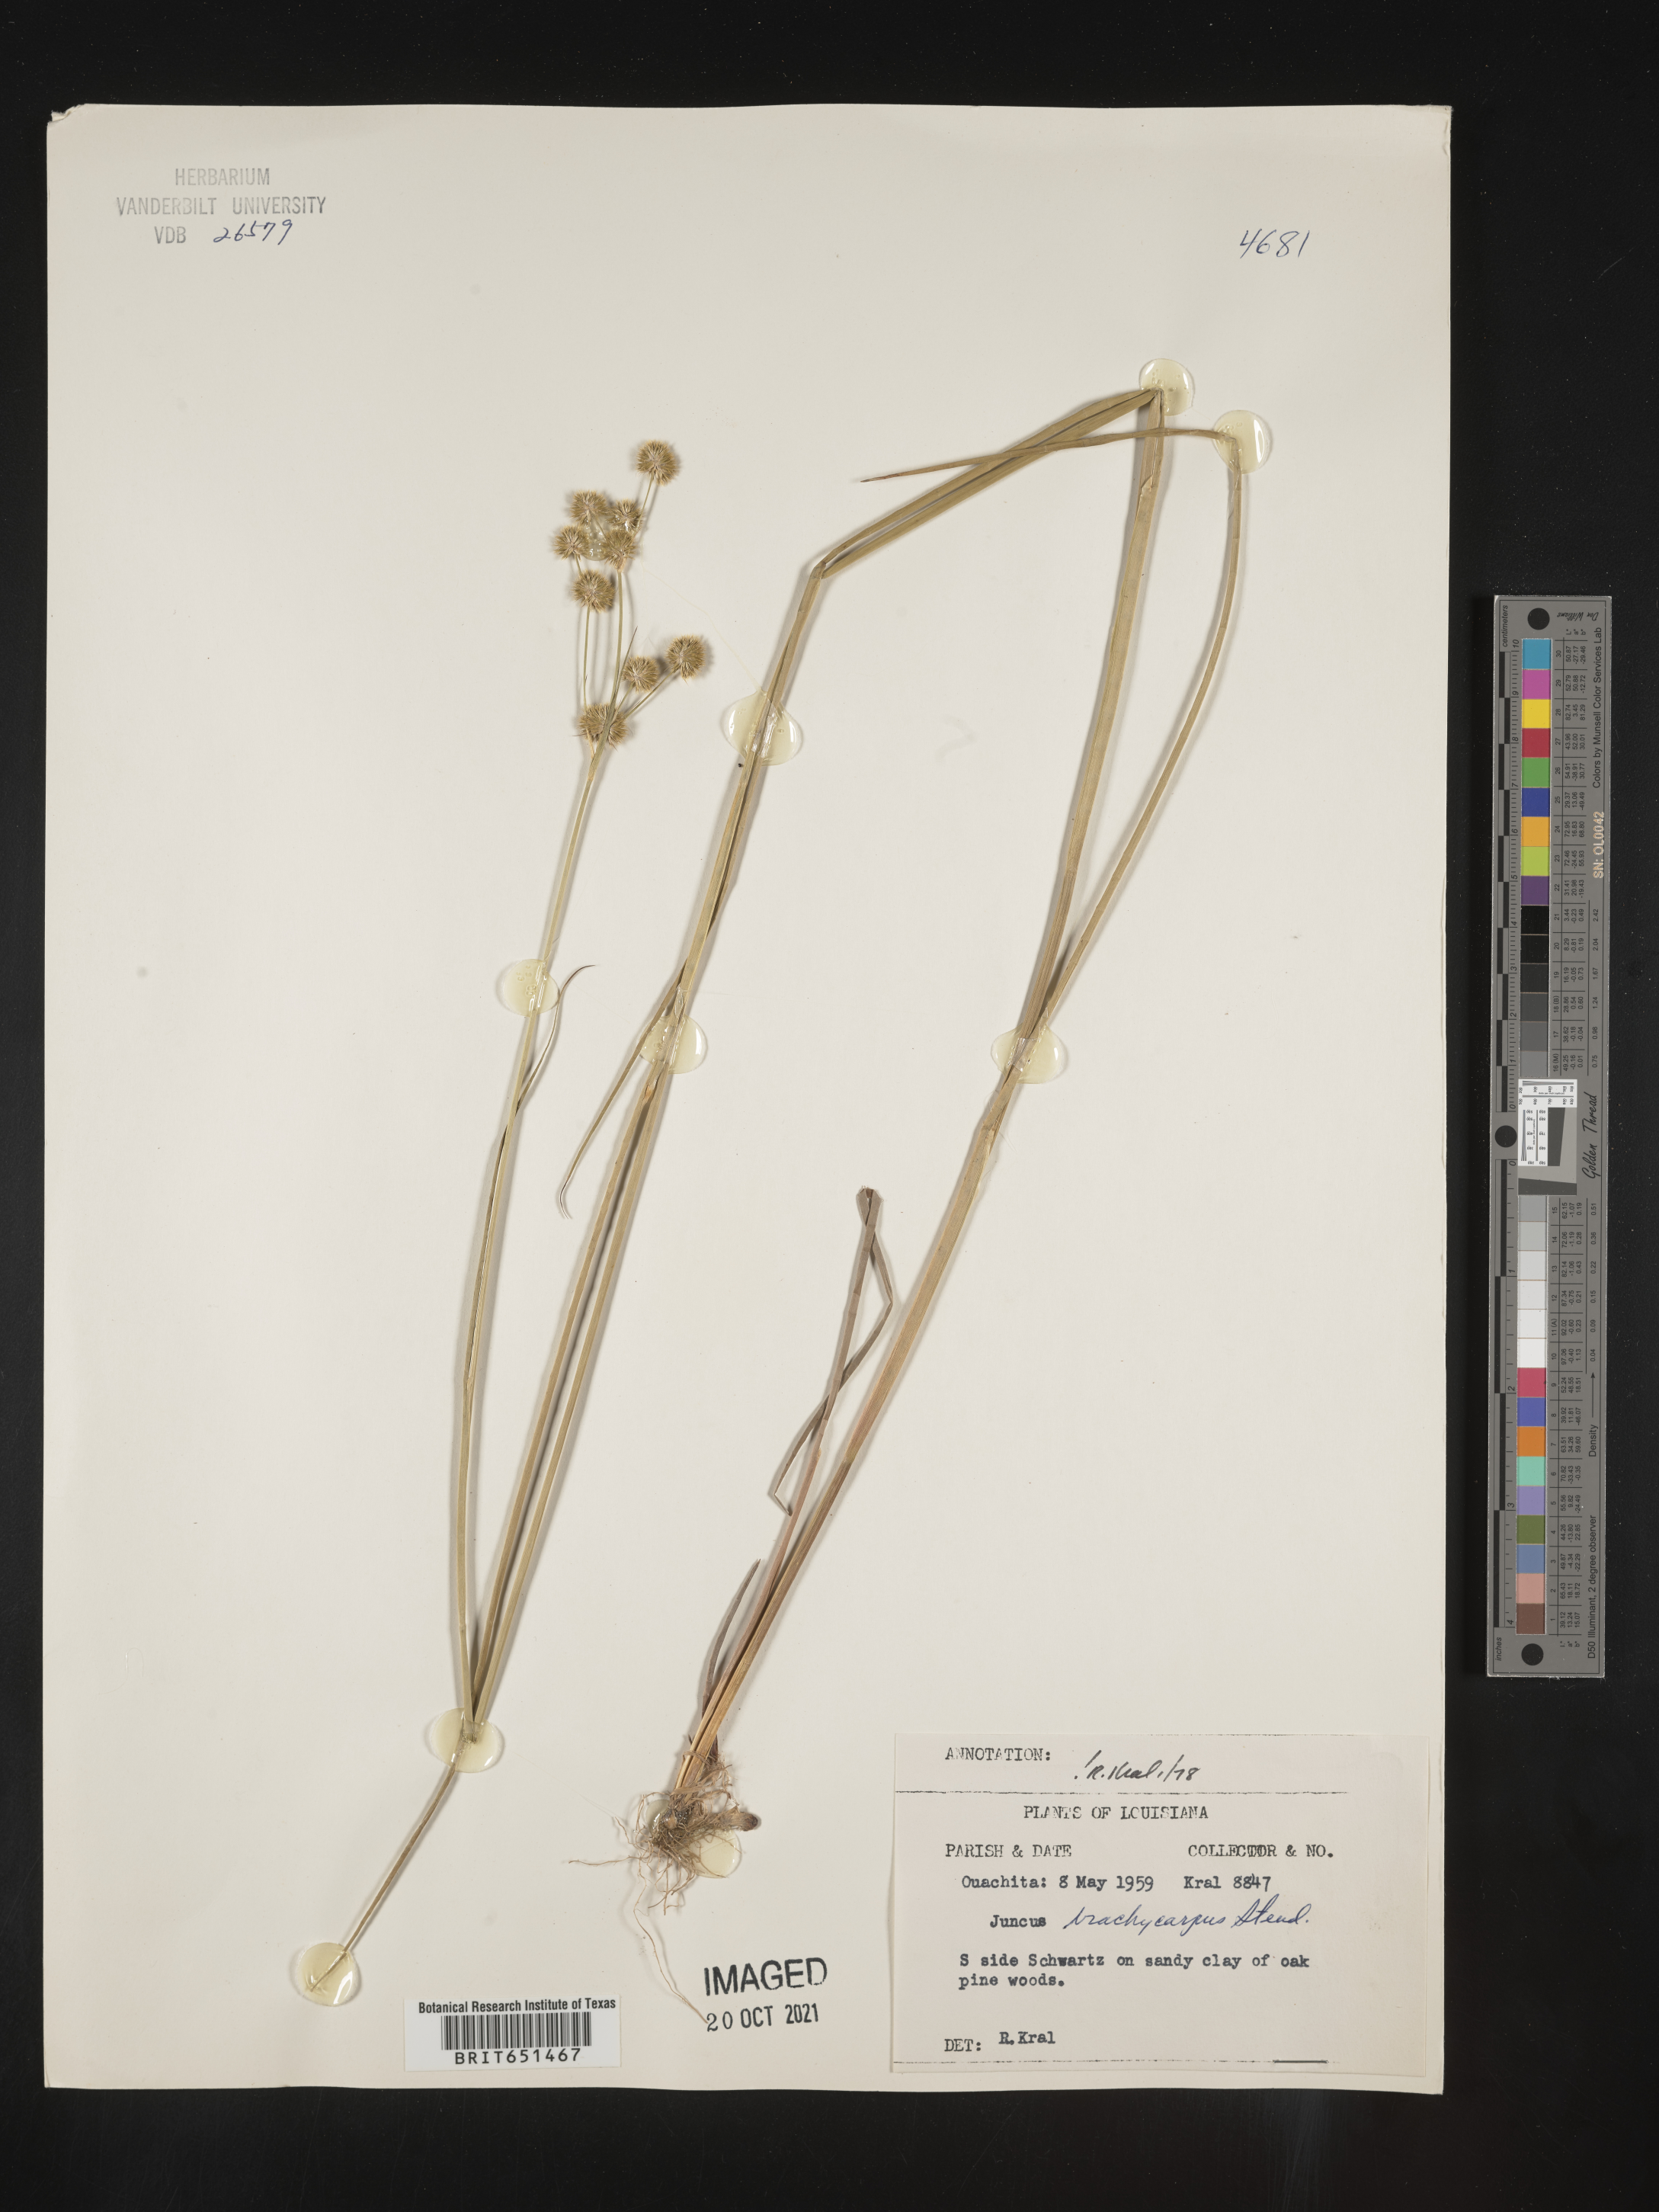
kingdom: Plantae
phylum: Tracheophyta
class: Liliopsida
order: Poales
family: Juncaceae
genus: Juncus
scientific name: Juncus brachycarpus
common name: Shore rush
